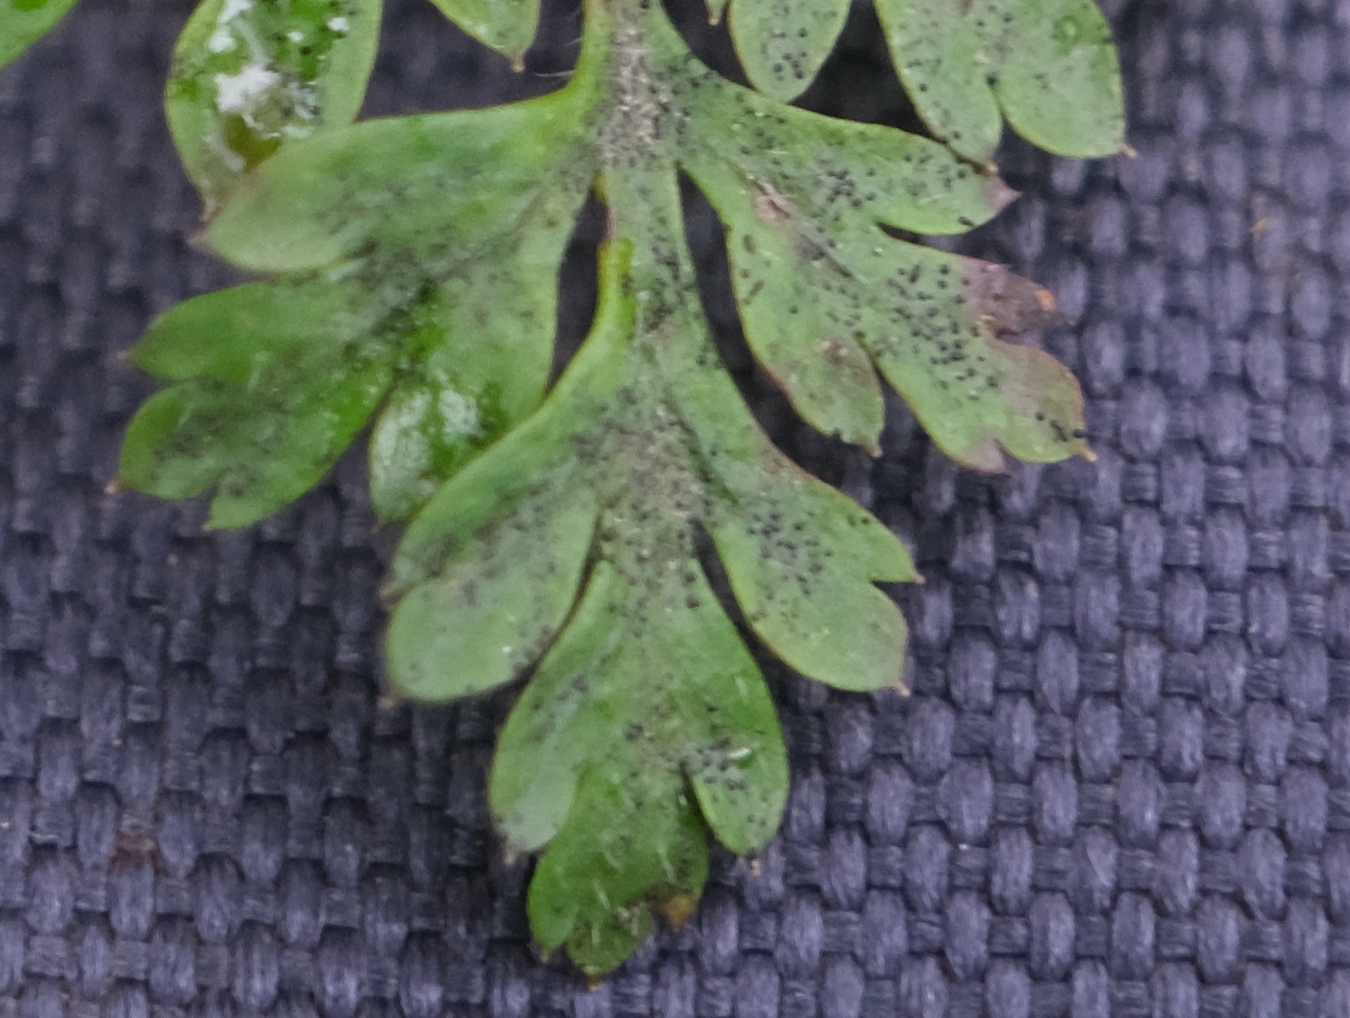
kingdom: Fungi
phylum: Ascomycota
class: Dothideomycetes
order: Venturiales
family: Venturiaceae
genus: Coleroa
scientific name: Coleroa robertiani
